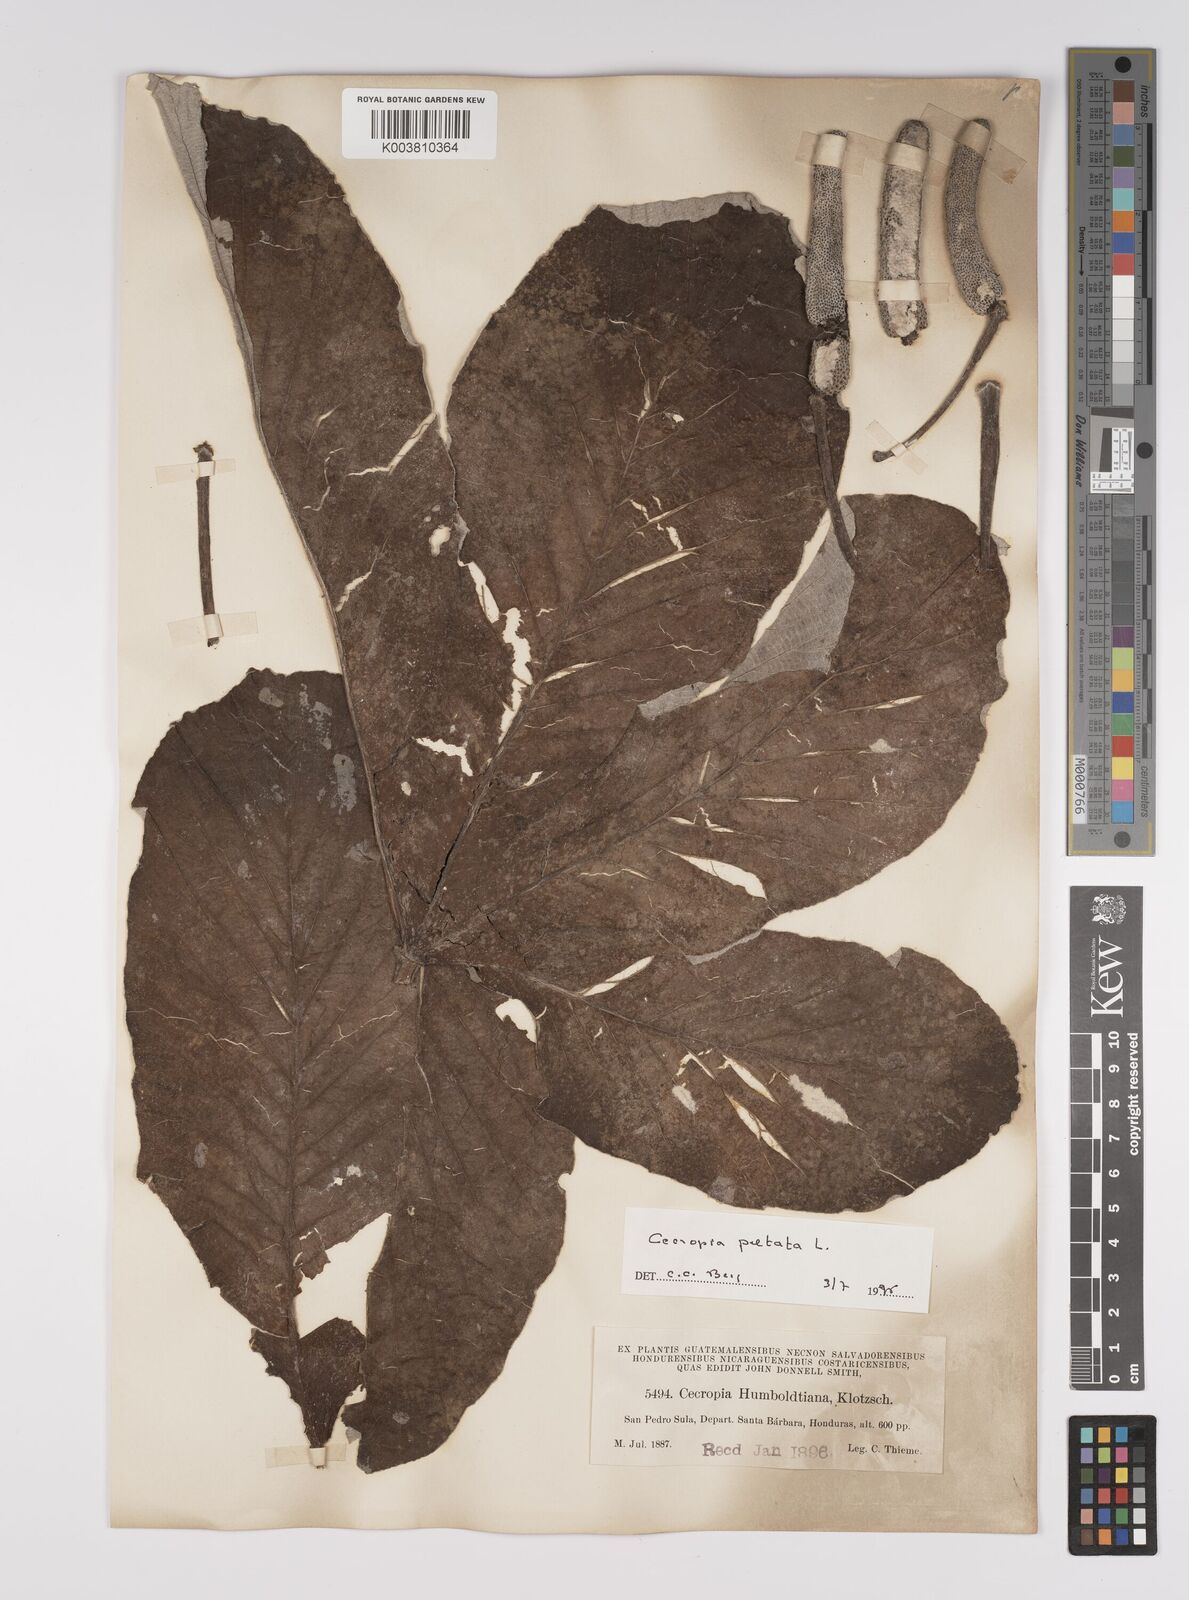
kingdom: Plantae
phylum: Tracheophyta
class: Magnoliopsida
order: Rosales
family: Urticaceae
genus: Cecropia
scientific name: Cecropia peltata
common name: Trumpet-tree
